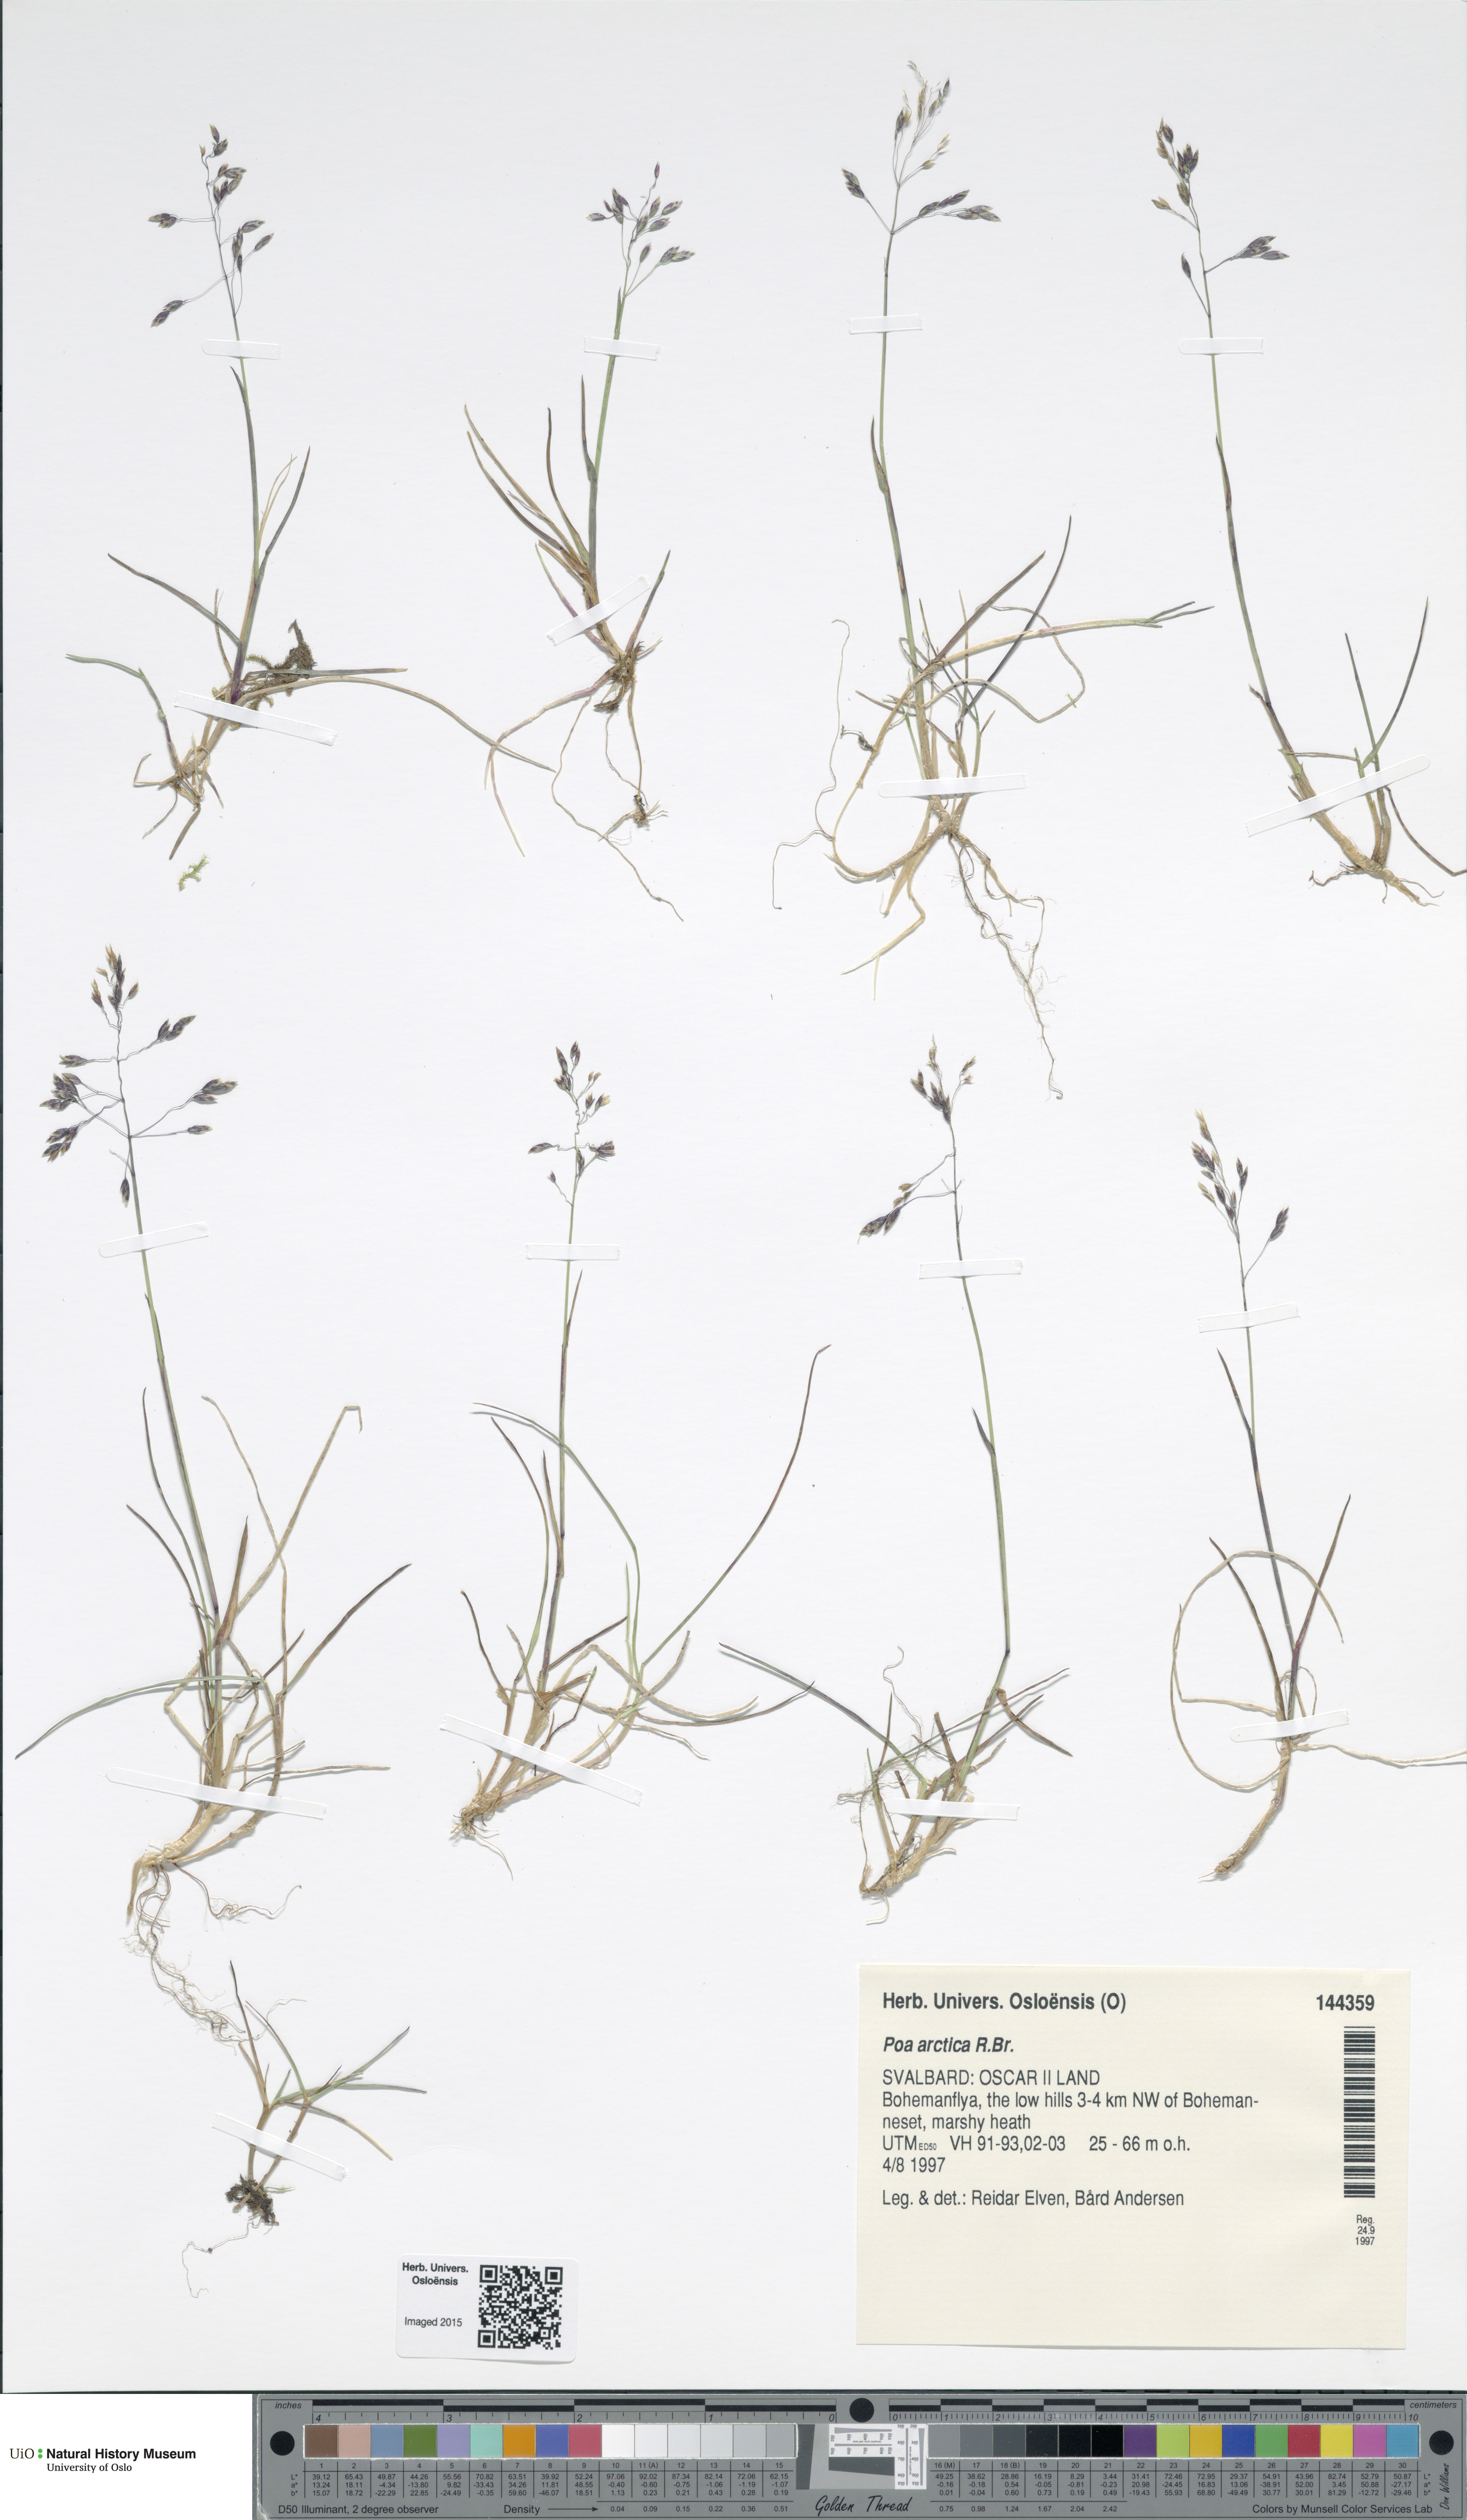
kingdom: Plantae
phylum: Tracheophyta
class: Liliopsida
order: Poales
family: Poaceae
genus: Poa
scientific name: Poa arctica
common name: Arctic bluegrass
